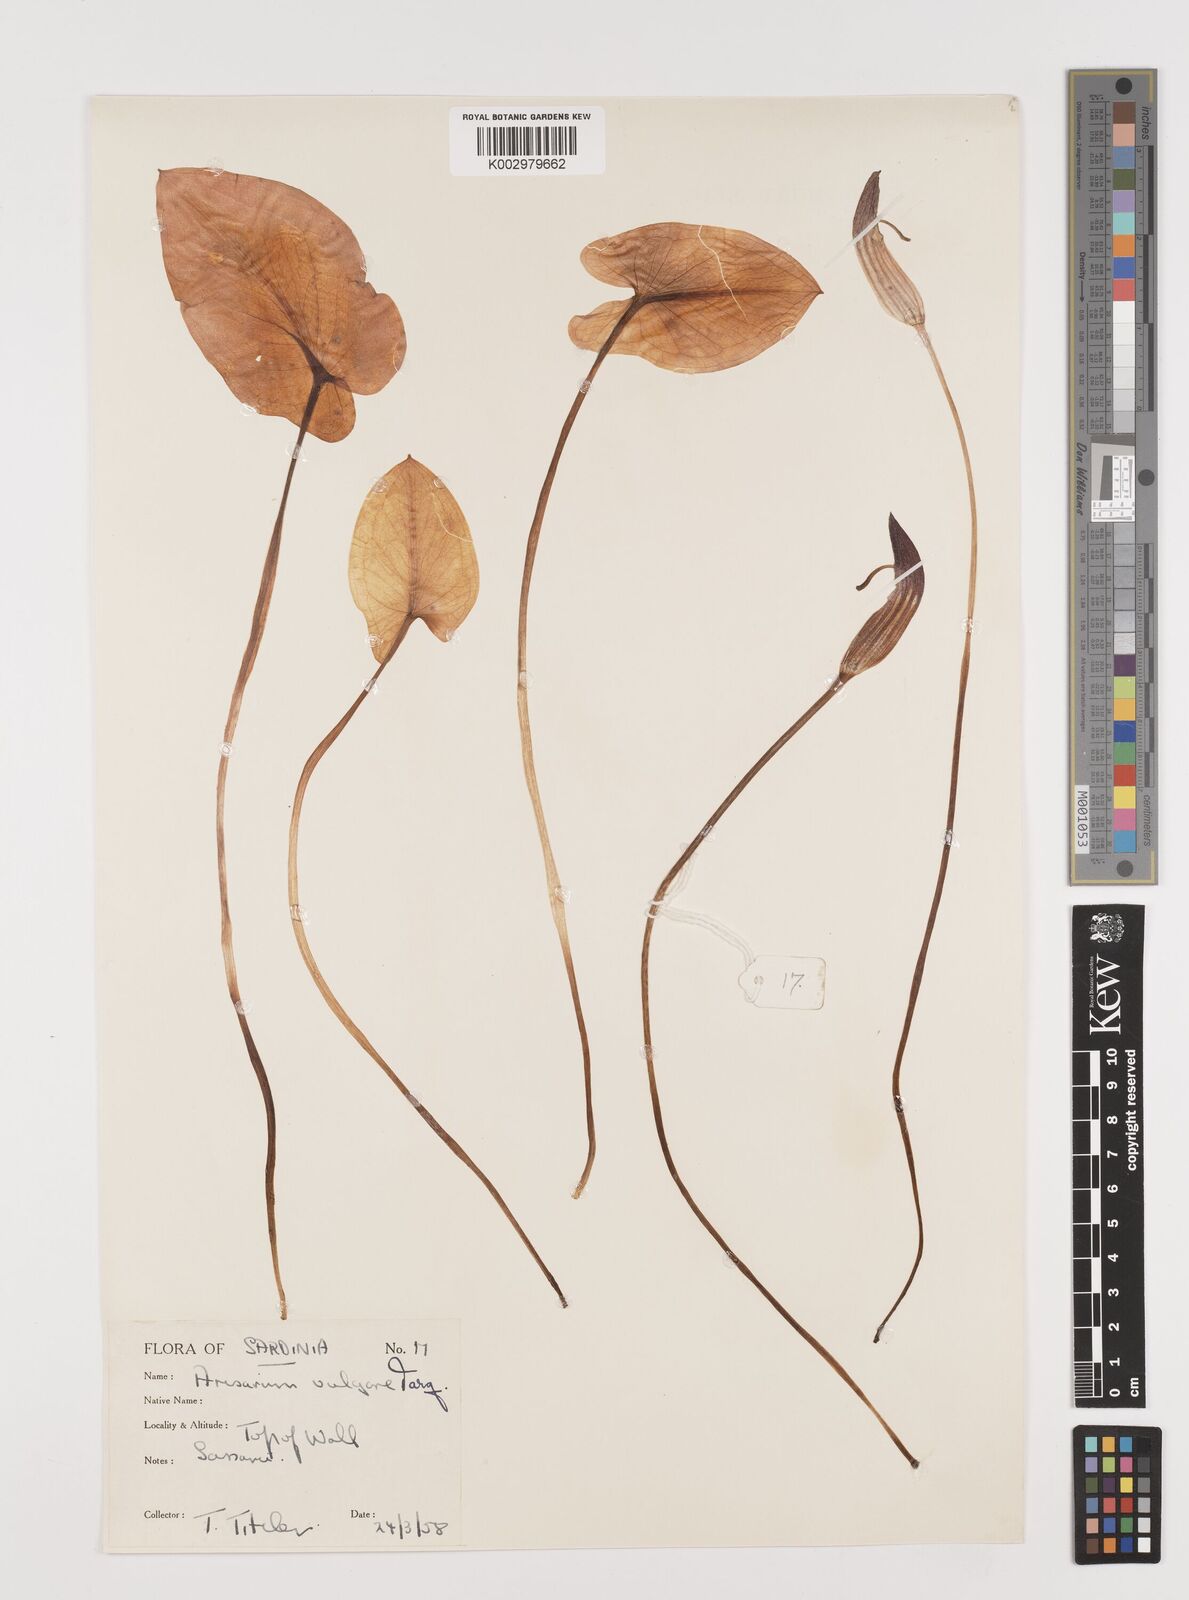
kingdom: Plantae
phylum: Tracheophyta
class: Liliopsida
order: Alismatales
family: Araceae
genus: Arisarum
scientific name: Arisarum vulgare
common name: Common arisarum
